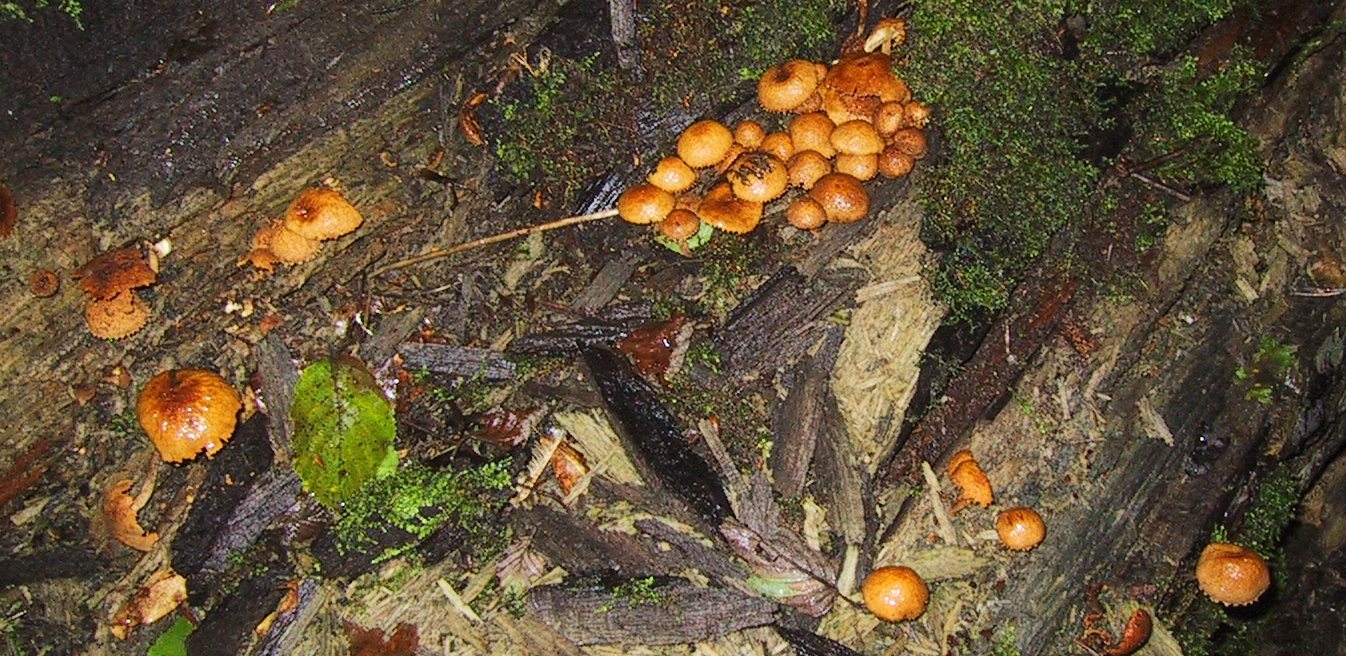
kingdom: Fungi
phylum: Basidiomycota
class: Agaricomycetes
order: Agaricales
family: Tubariaceae
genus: Flammulaster
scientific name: Flammulaster muricatus
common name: pigget grynskælhat
